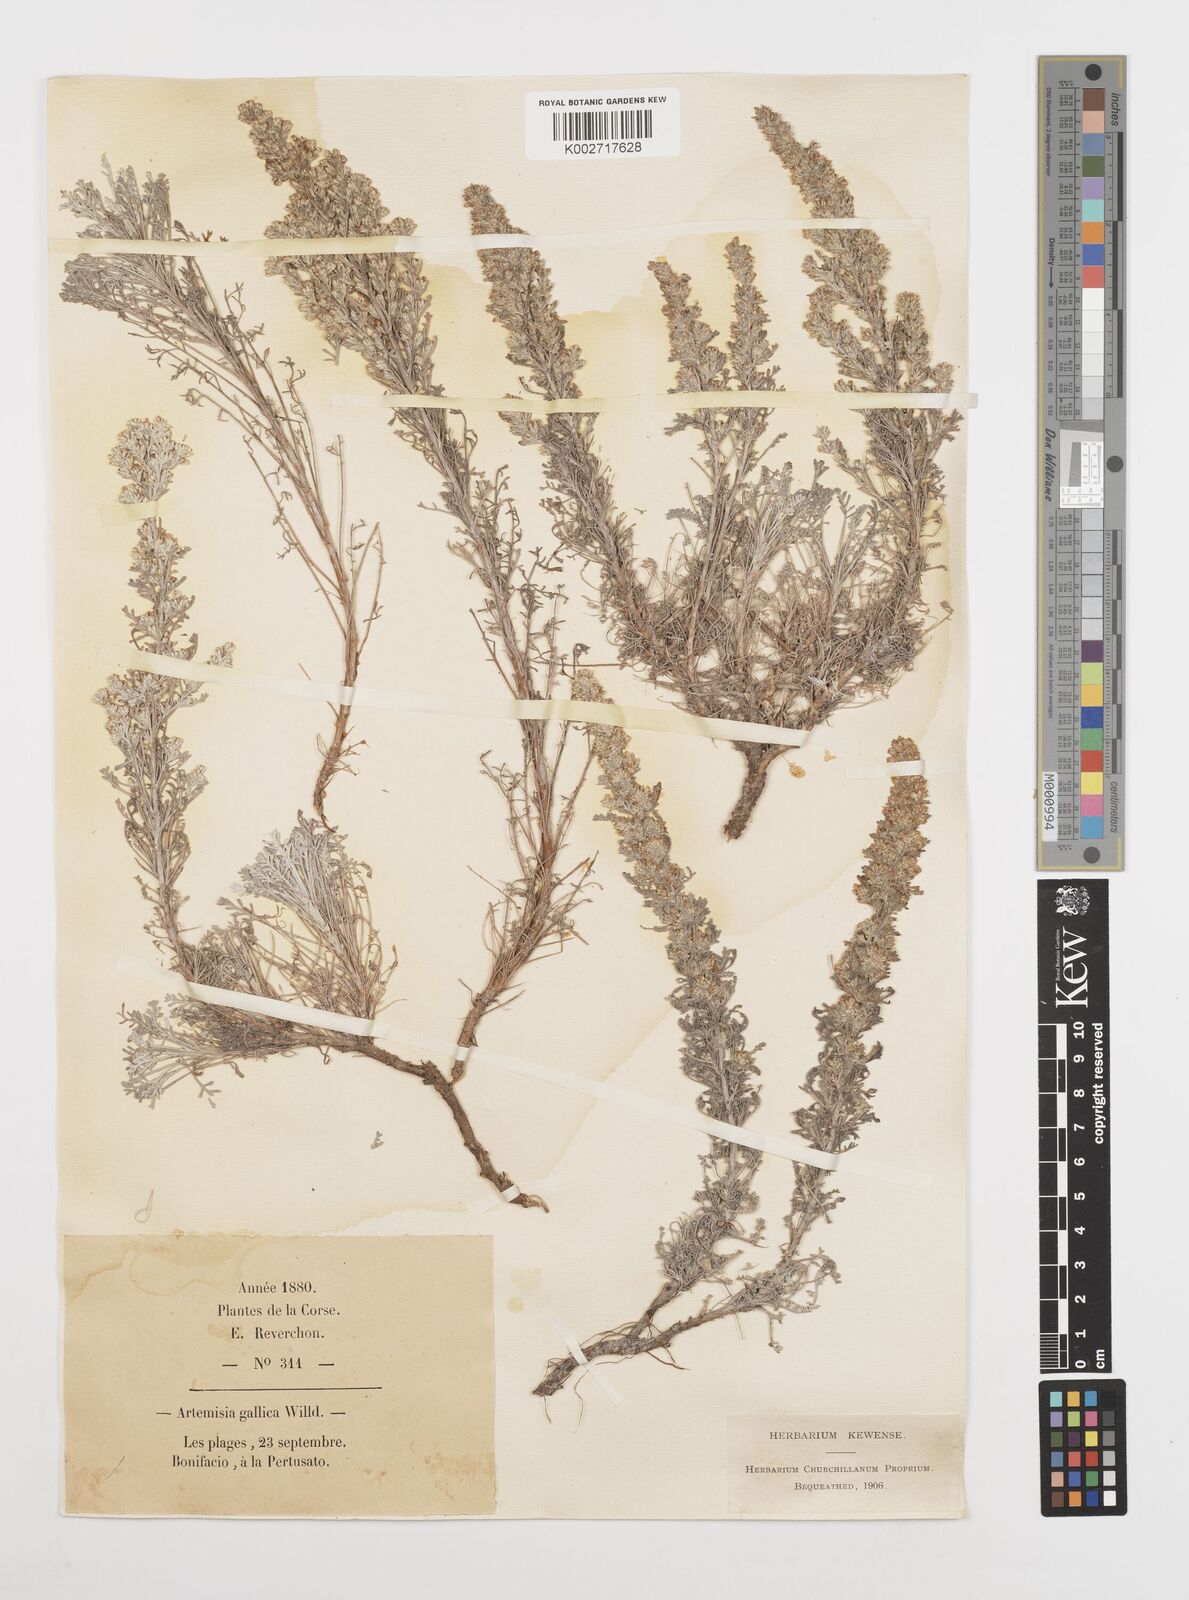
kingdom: Plantae
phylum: Tracheophyta
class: Magnoliopsida
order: Asterales
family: Asteraceae
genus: Artemisia
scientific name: Artemisia campestris
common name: Field wormwood
